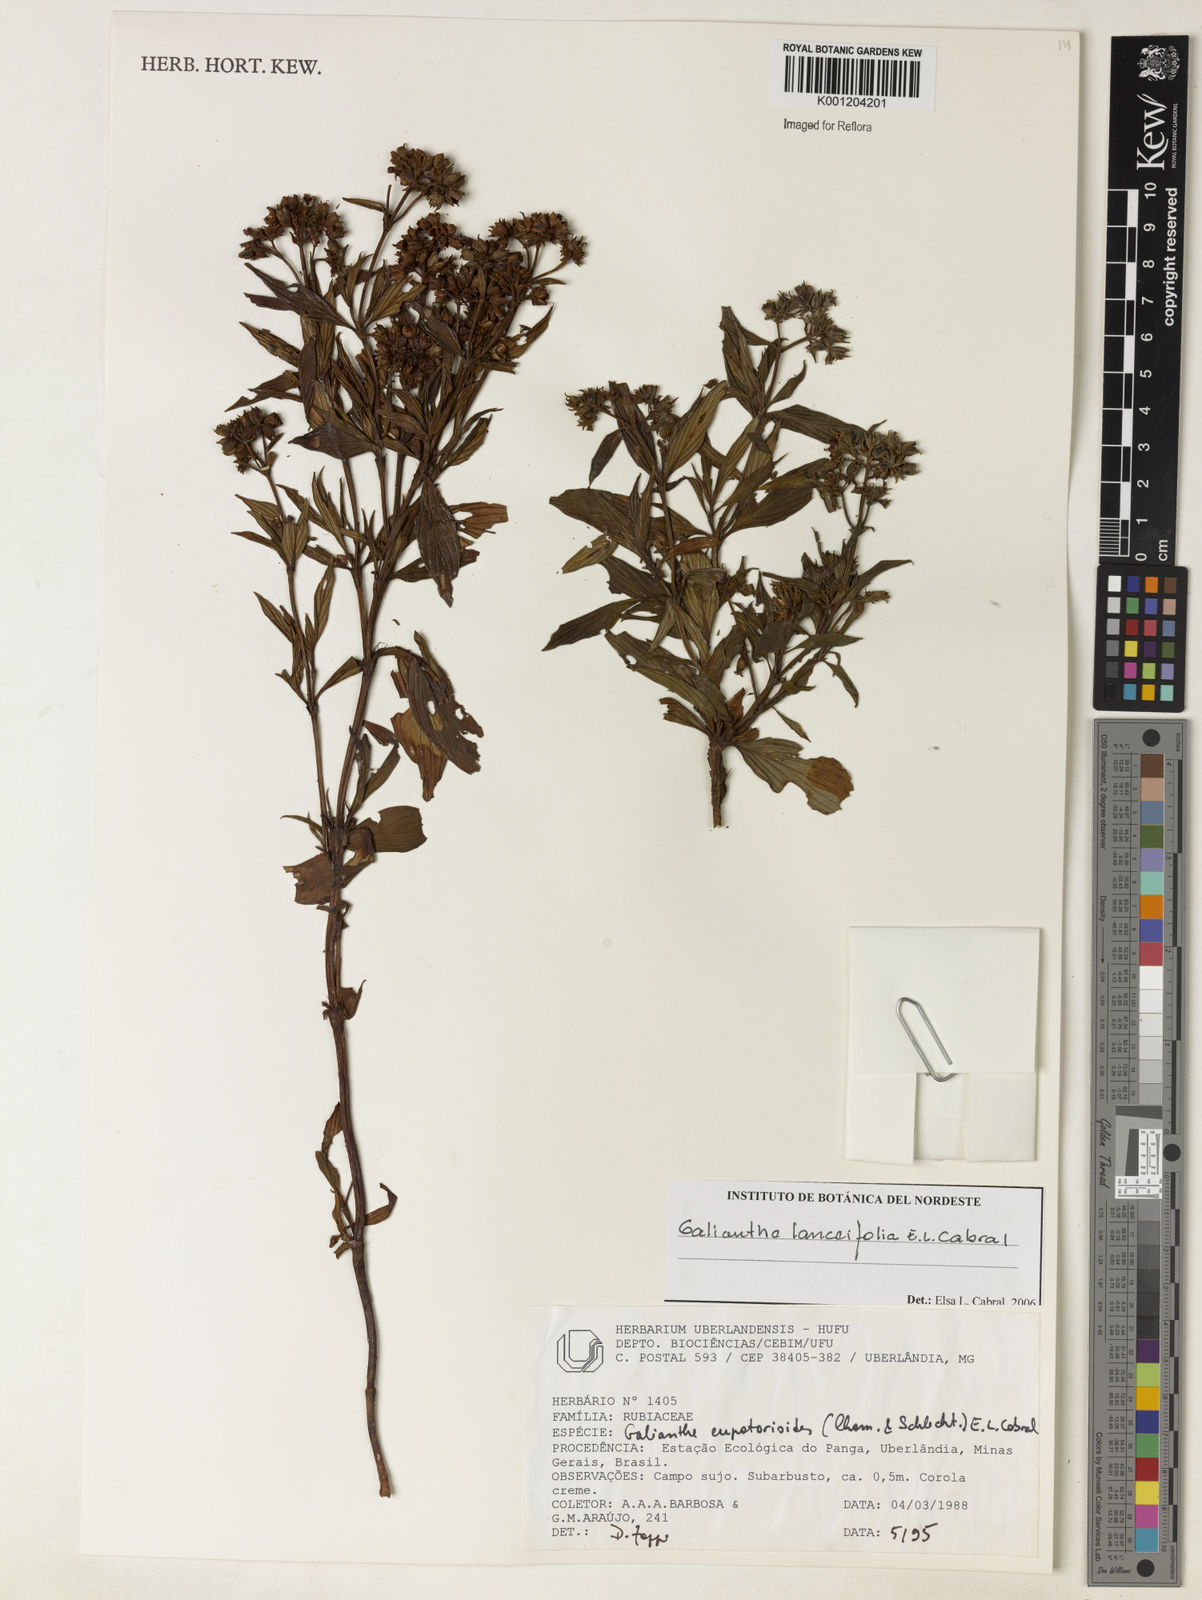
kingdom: Plantae
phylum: Tracheophyta
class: Magnoliopsida
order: Gentianales
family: Rubiaceae
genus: Galianthe
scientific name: Galianthe lanceifolia
